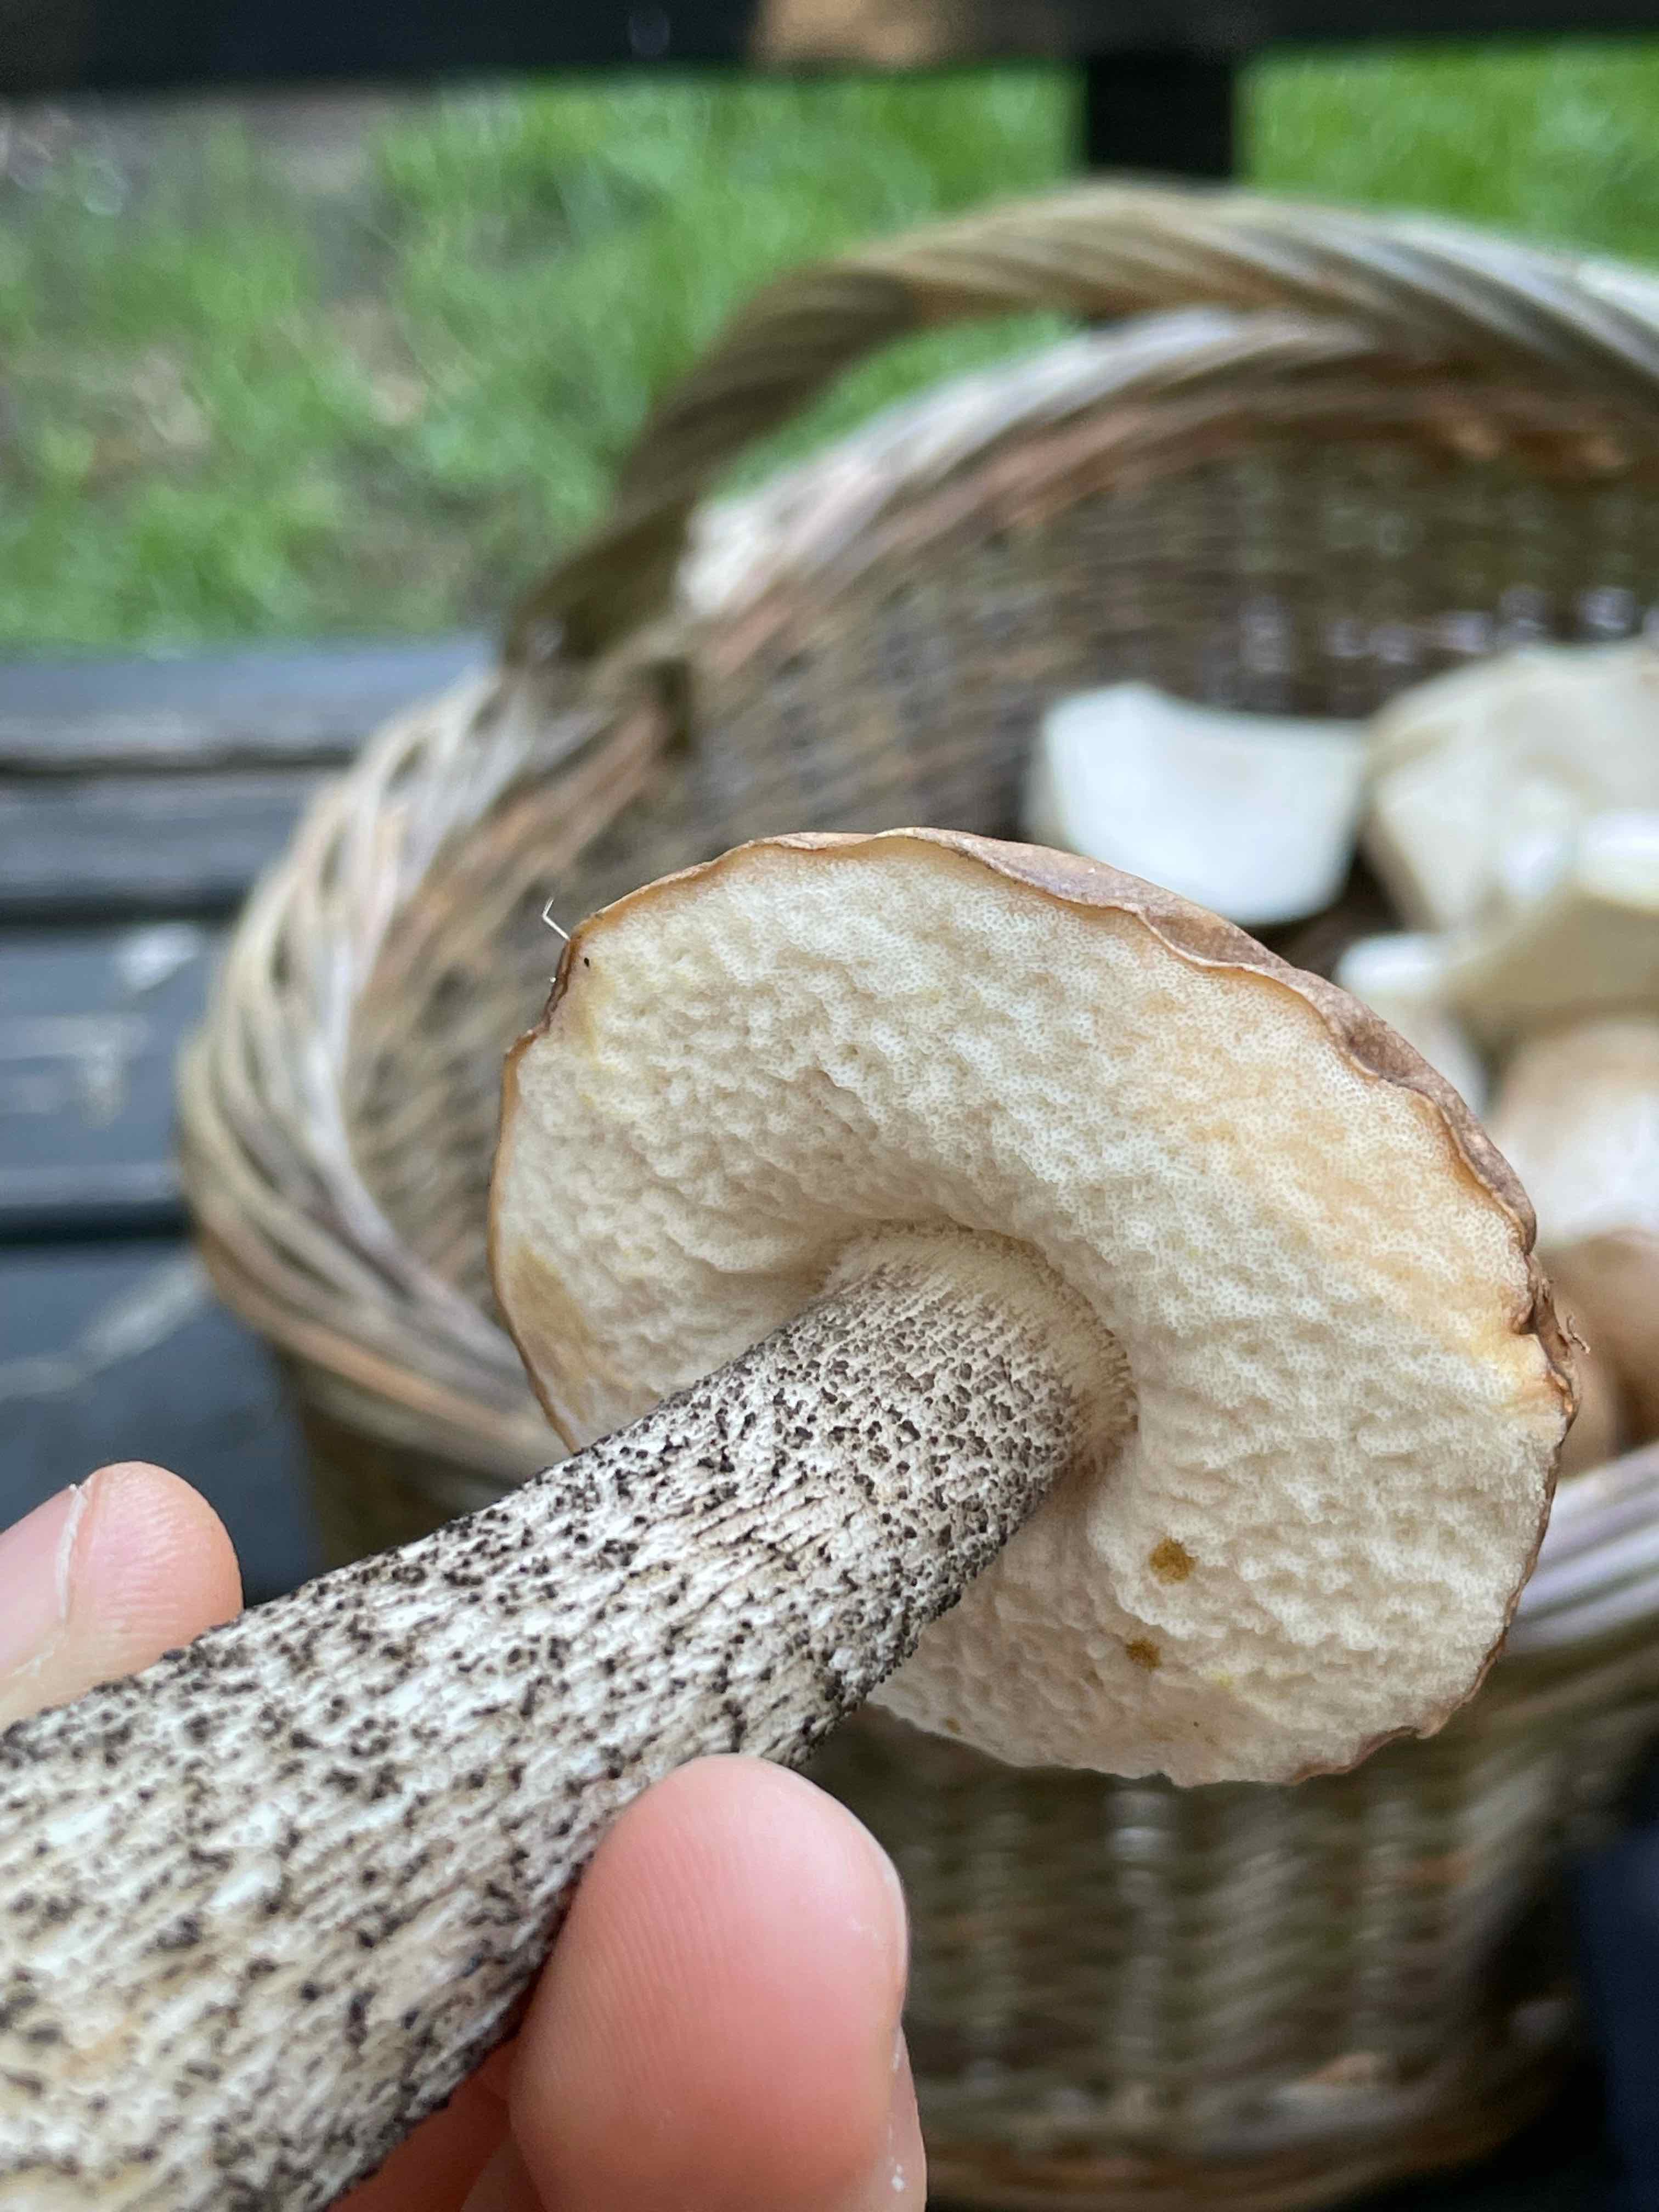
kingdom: Fungi
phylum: Basidiomycota
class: Agaricomycetes
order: Boletales
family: Boletaceae
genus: Leccinum
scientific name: Leccinum scabrum
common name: brun skælrørhat
